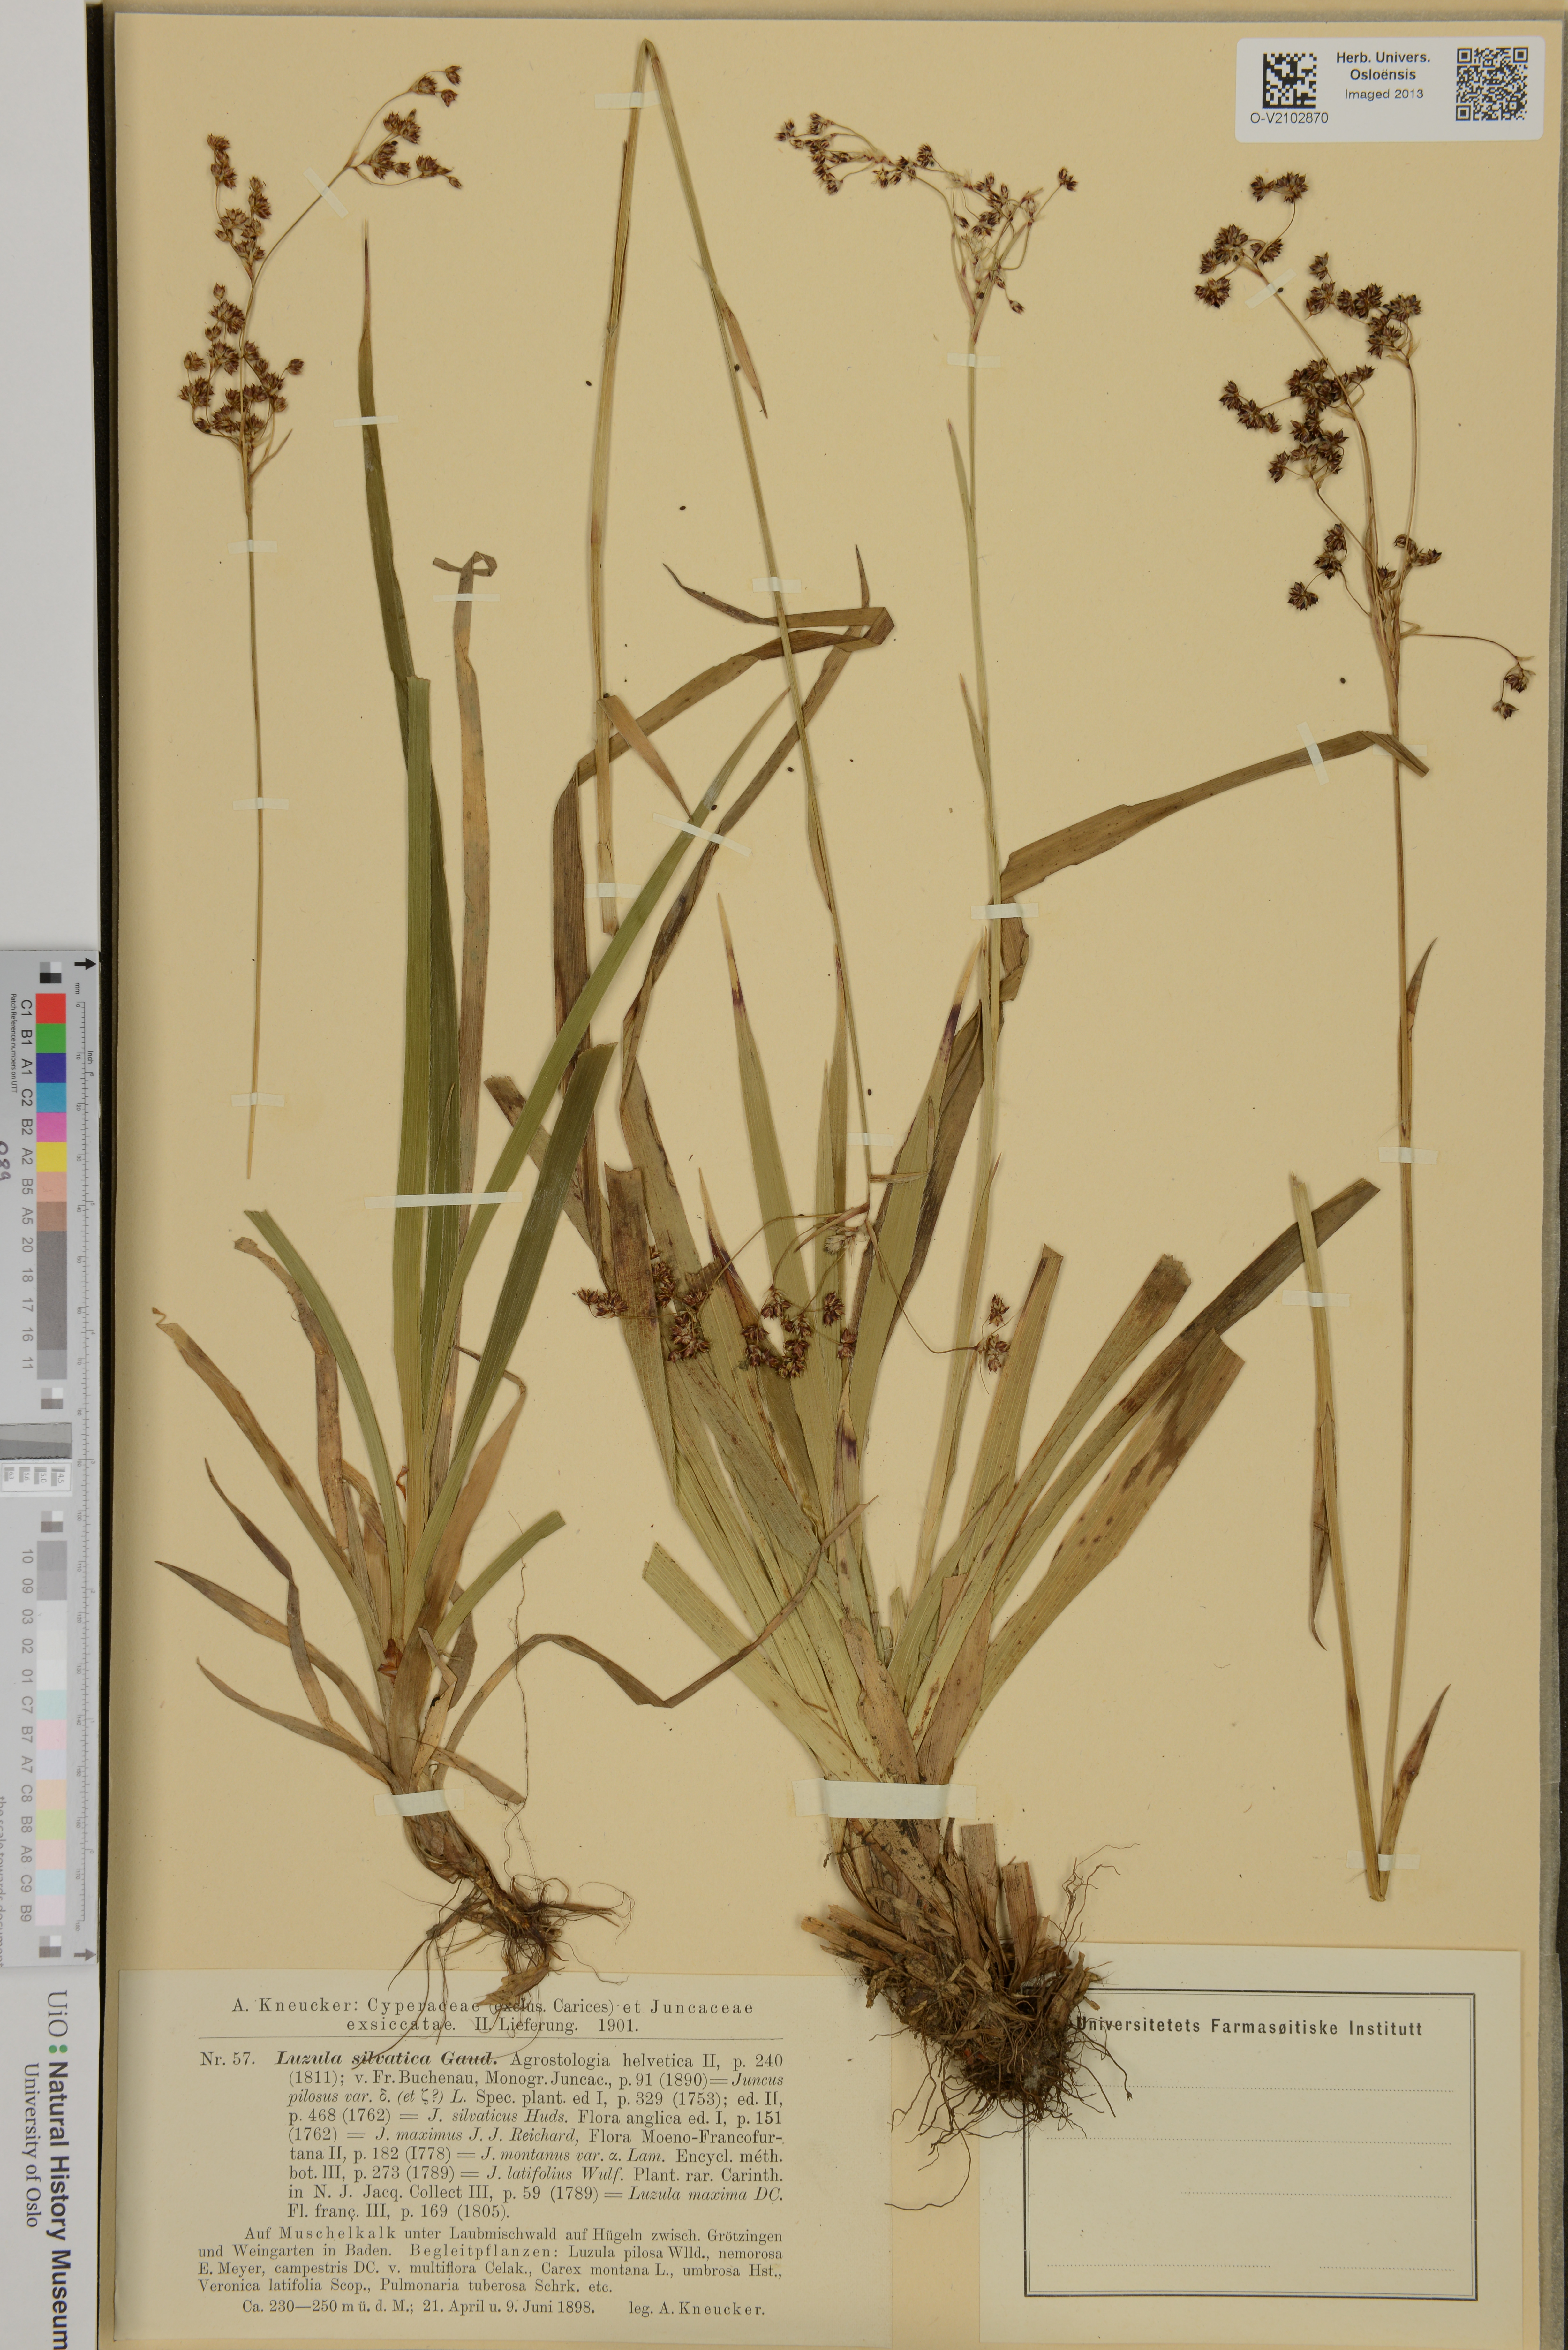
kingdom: Plantae
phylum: Tracheophyta
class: Liliopsida
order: Poales
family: Juncaceae
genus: Luzula
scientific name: Luzula sylvatica
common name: Great wood-rush
